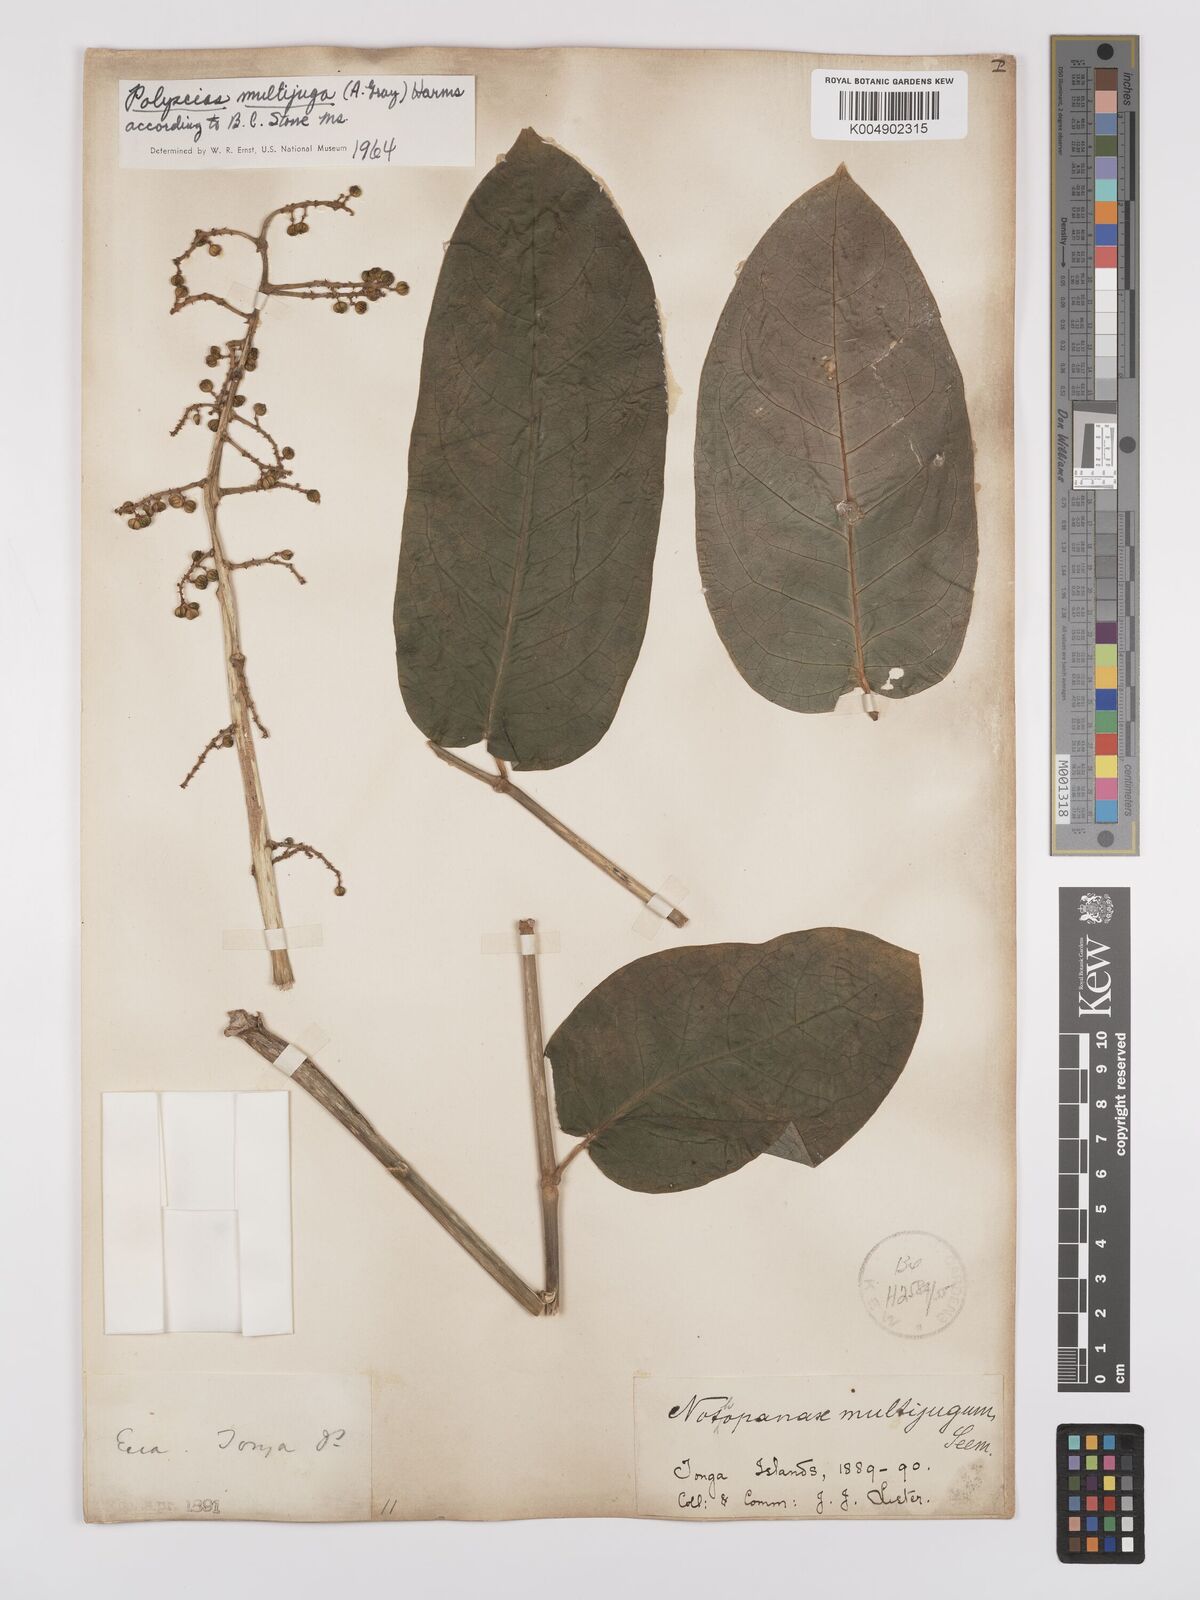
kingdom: Plantae
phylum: Tracheophyta
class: Magnoliopsida
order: Apiales
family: Araliaceae
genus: Polyscias
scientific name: Polyscias multijuga
